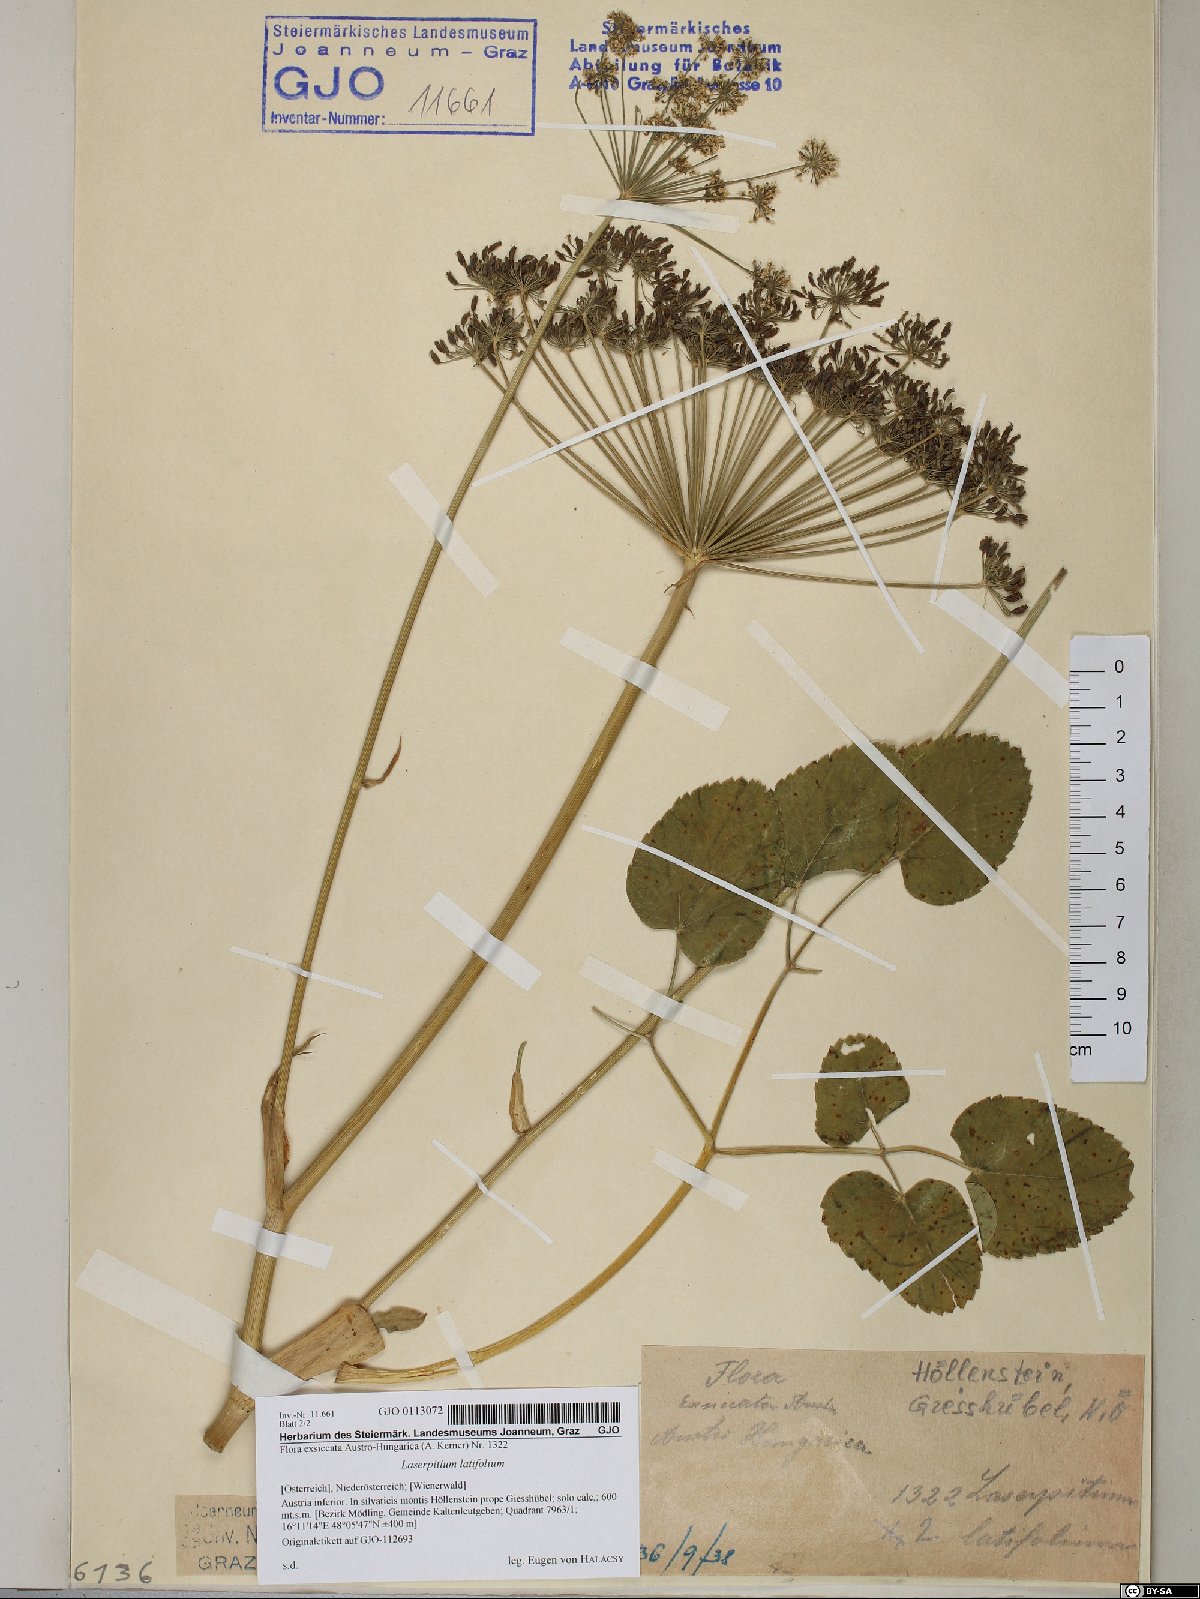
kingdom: Plantae
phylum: Tracheophyta
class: Magnoliopsida
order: Apiales
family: Apiaceae
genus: Laserpitium
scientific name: Laserpitium latifolium
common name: Broadleaf sermountain
